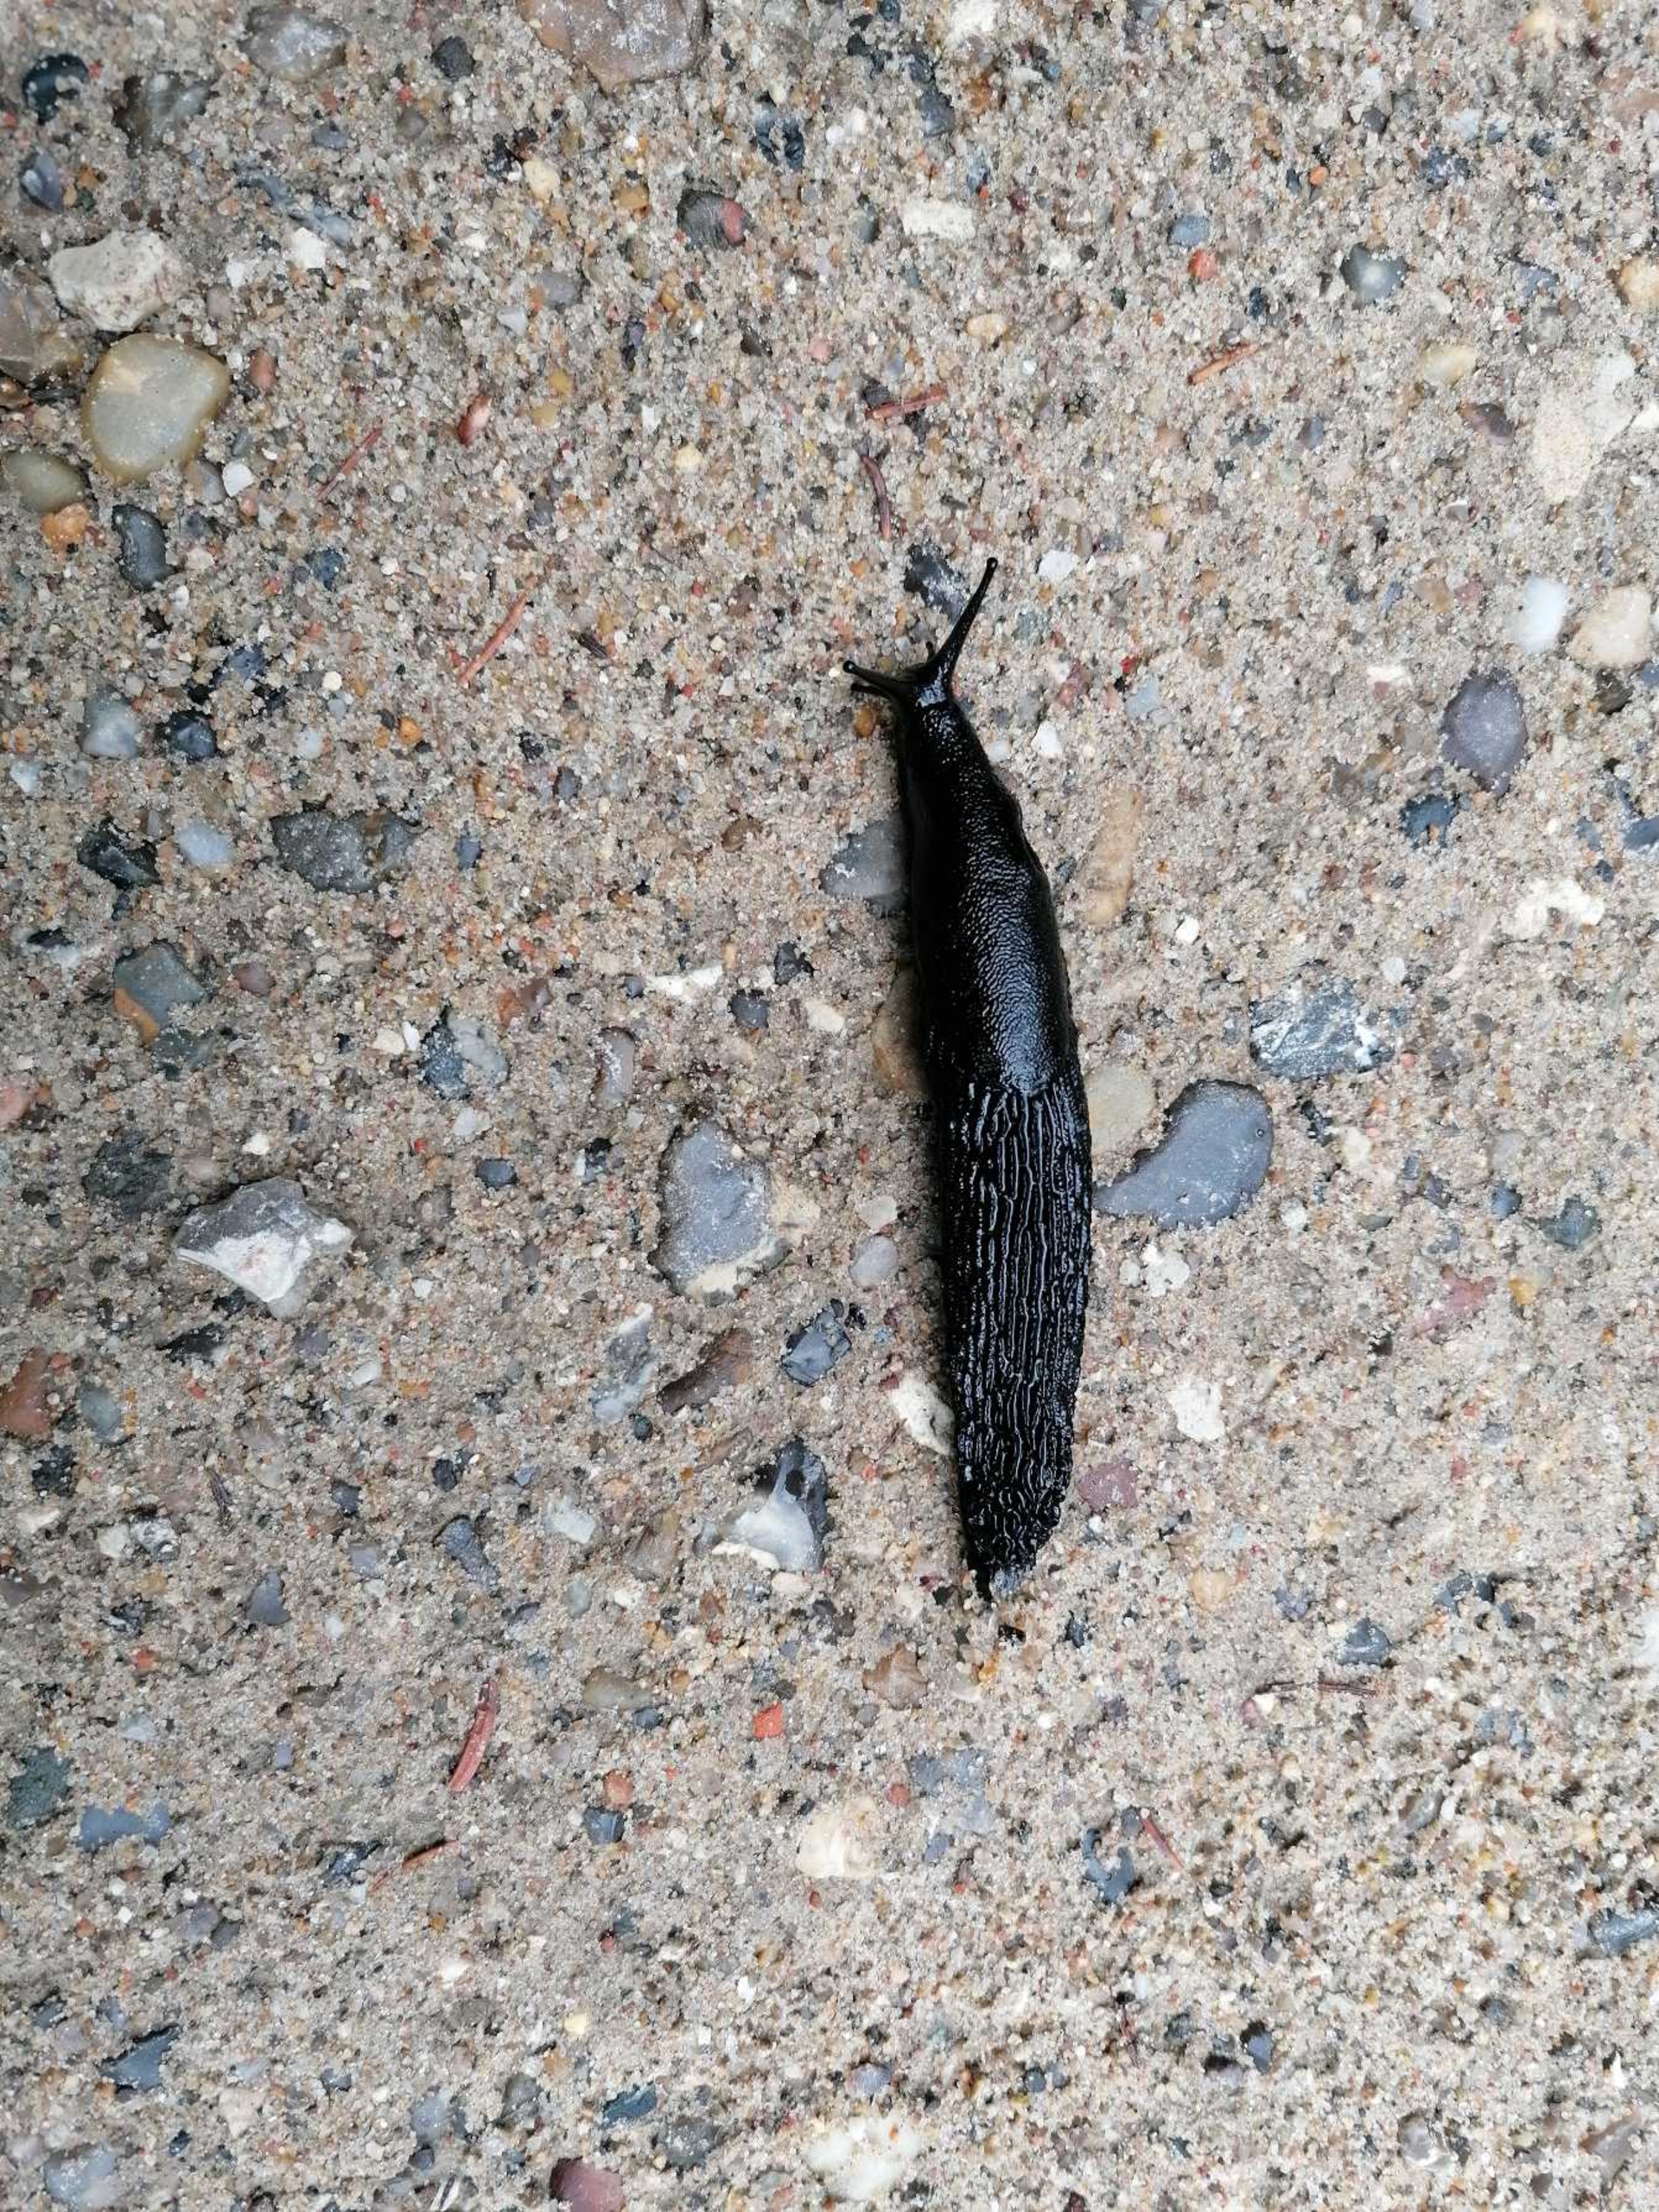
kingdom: Animalia
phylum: Mollusca
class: Gastropoda
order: Stylommatophora
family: Arionidae
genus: Arion
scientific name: Arion ater
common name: Sort skovsnegl
